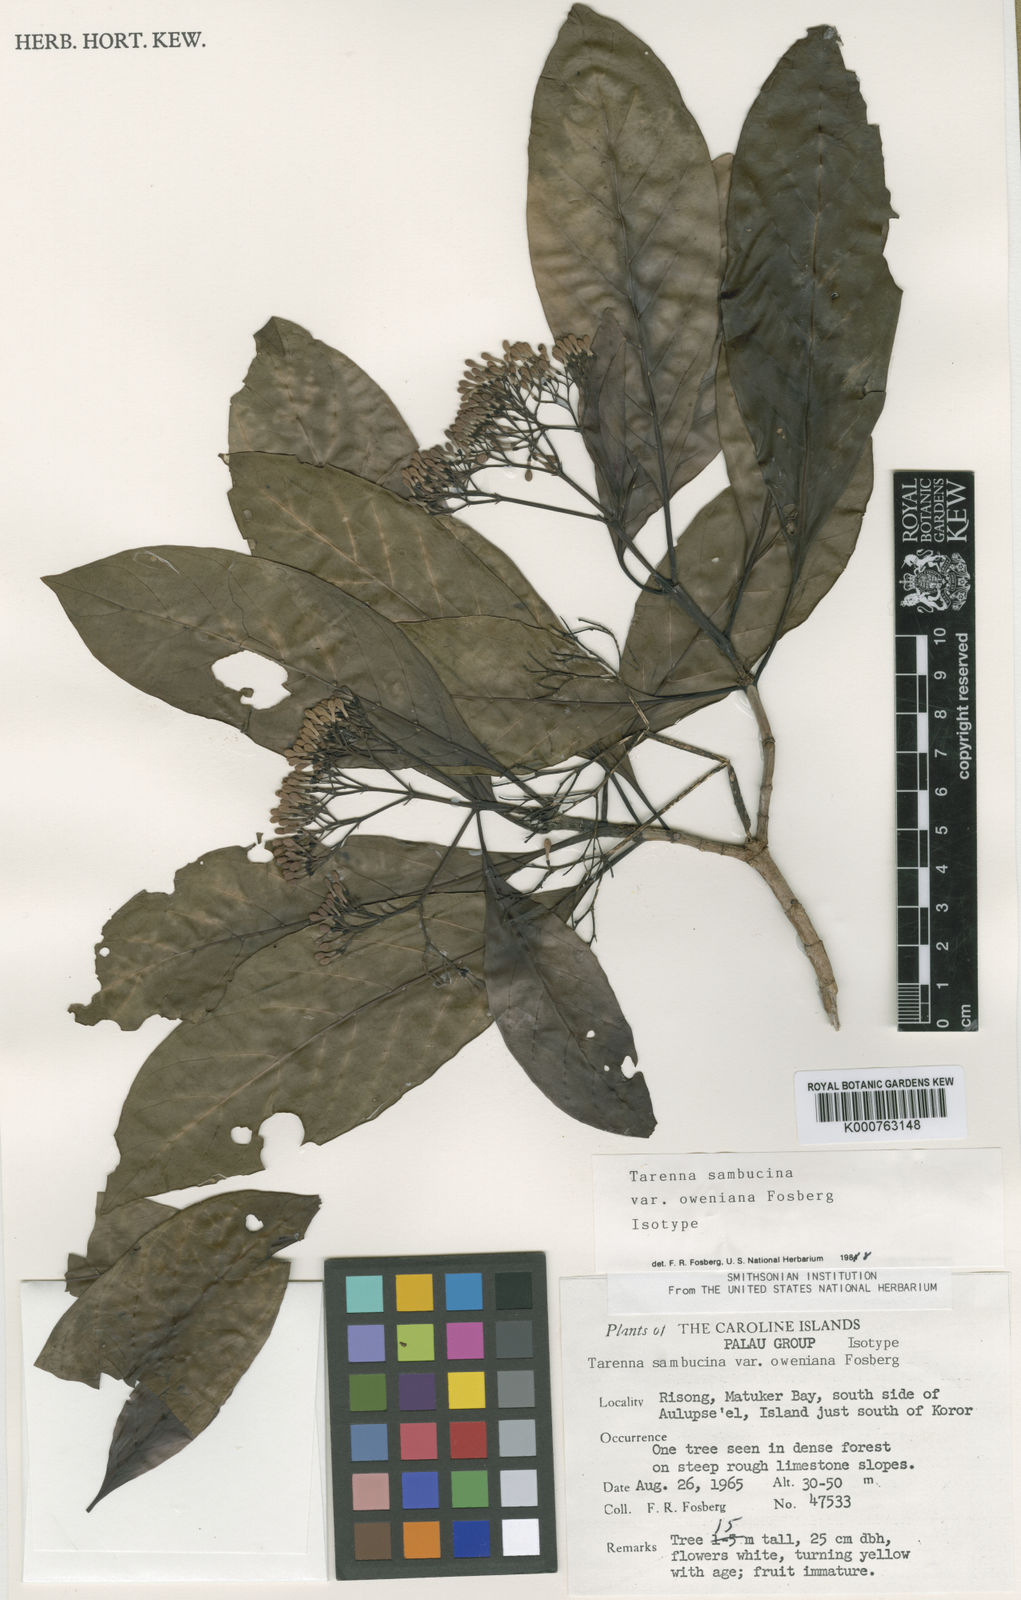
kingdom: Plantae
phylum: Tracheophyta
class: Magnoliopsida
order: Gentianales
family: Rubiaceae
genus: Tarenna
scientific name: Tarenna sambucina
